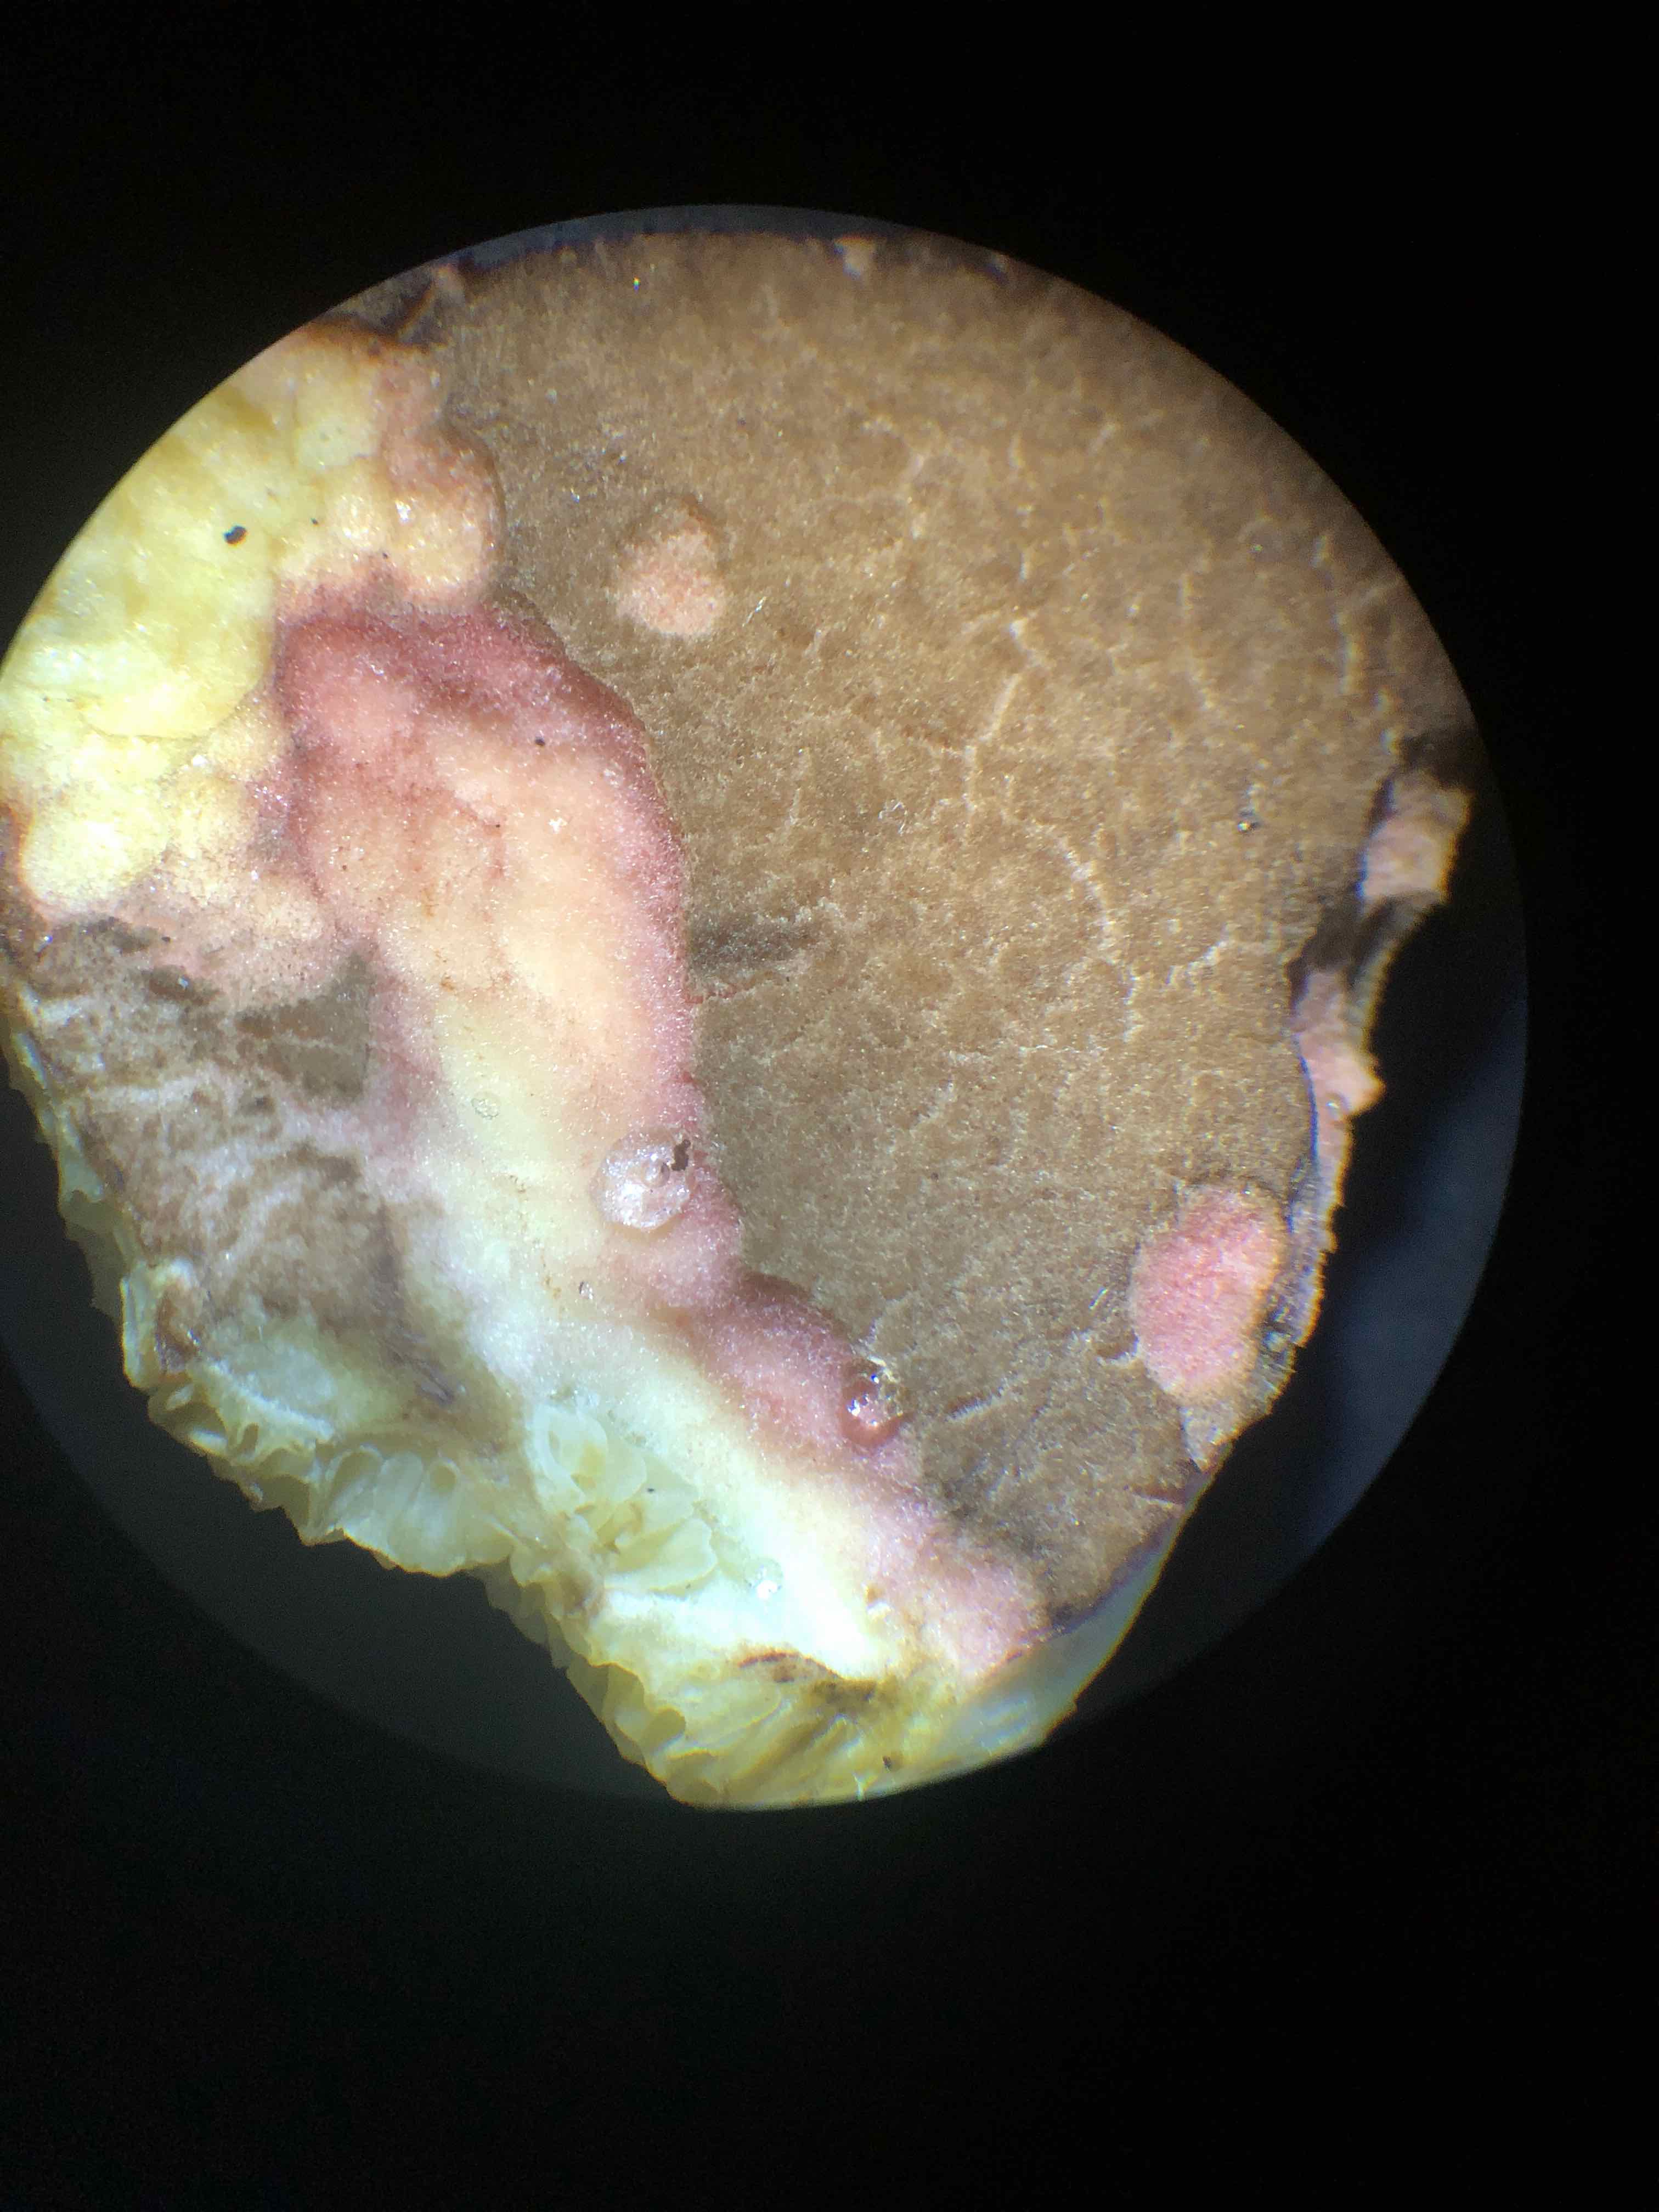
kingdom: Fungi
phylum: Basidiomycota
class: Agaricomycetes
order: Boletales
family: Boletaceae
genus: Xerocomellus
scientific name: Xerocomellus chrysenteron
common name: rødsprukken rørhat
